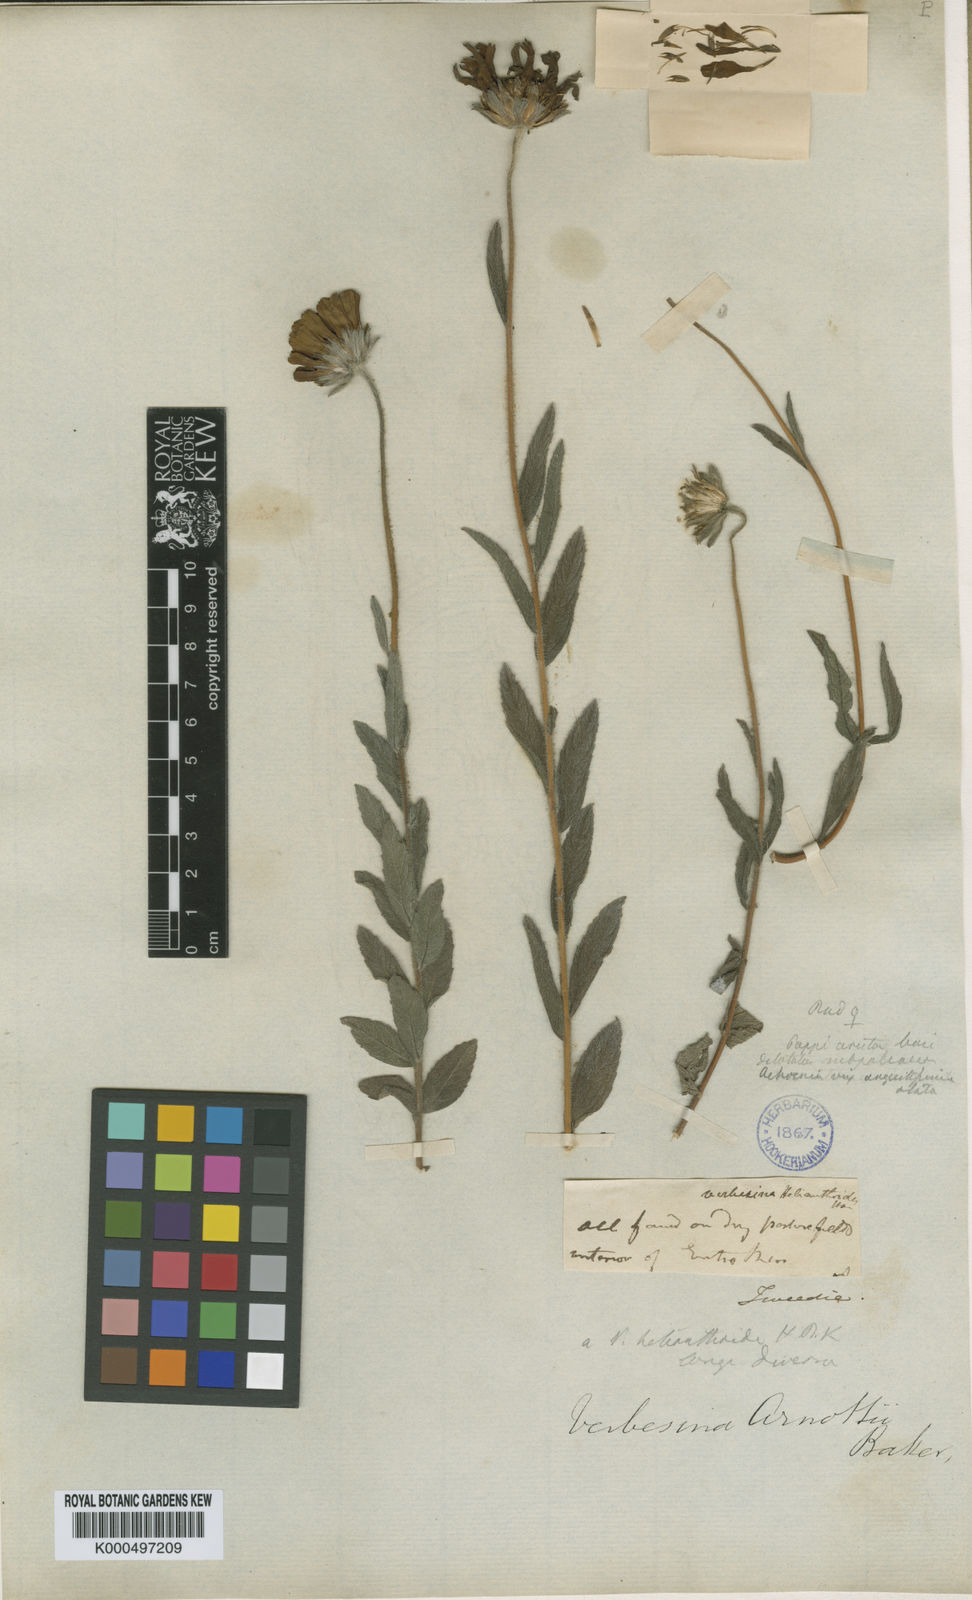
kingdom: Plantae
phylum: Tracheophyta
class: Magnoliopsida
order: Asterales
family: Asteraceae
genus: Dimerostemma
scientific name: Dimerostemma arnottii
